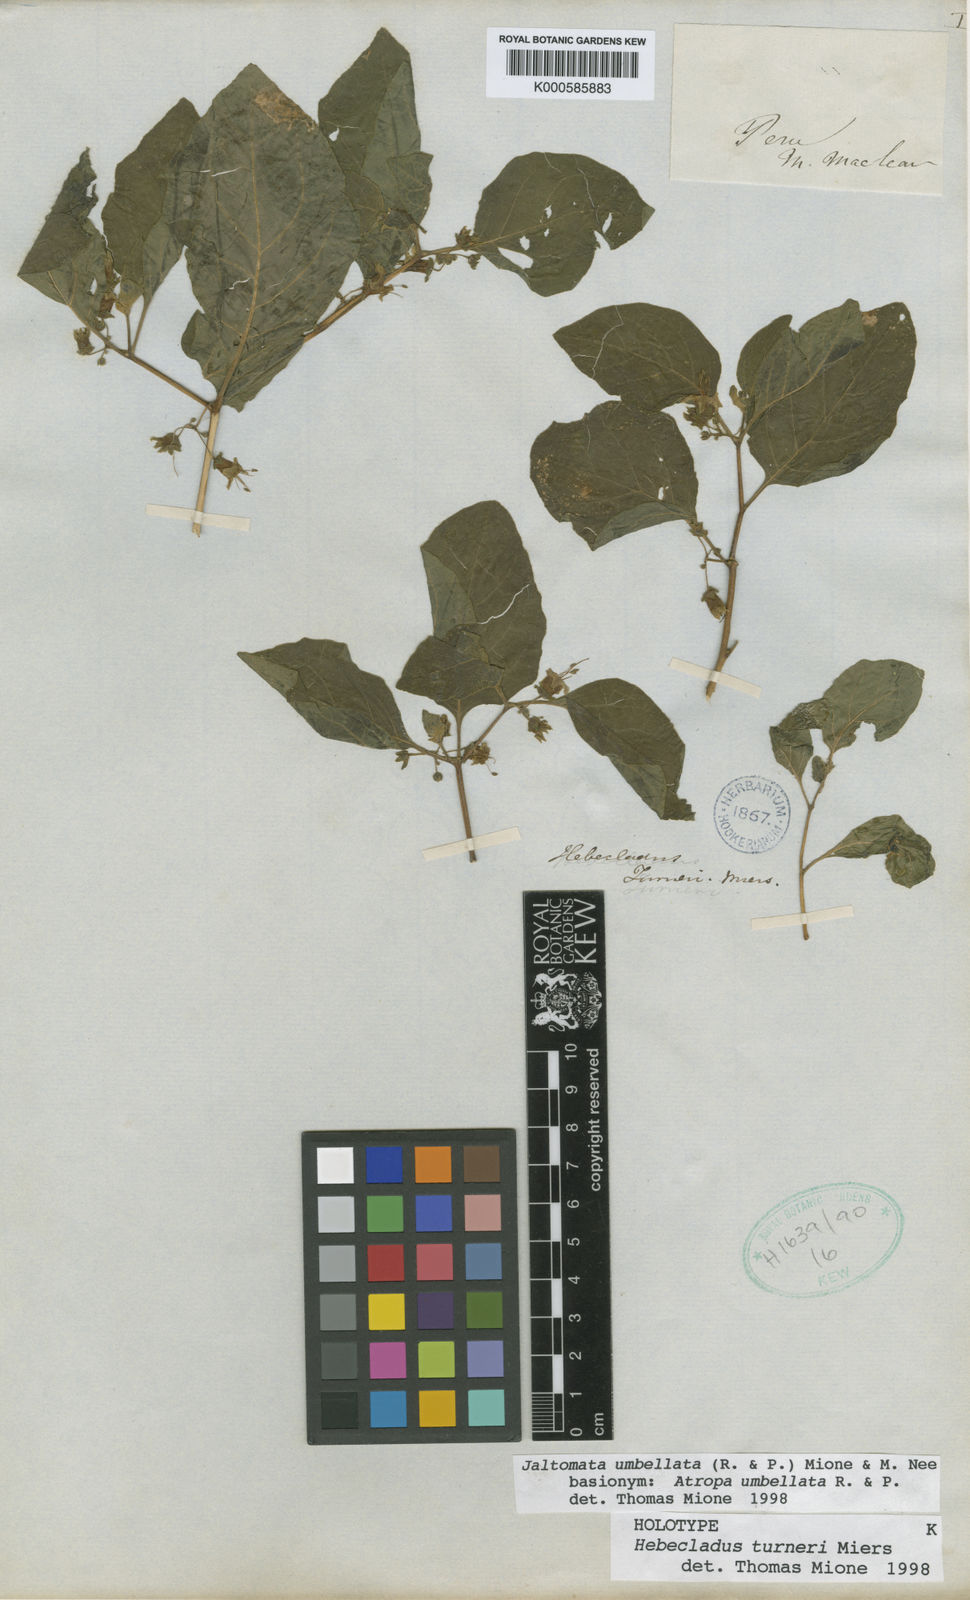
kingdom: Plantae
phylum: Tracheophyta
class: Magnoliopsida
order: Solanales
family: Solanaceae
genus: Jaltomata
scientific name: Jaltomata umbellata
